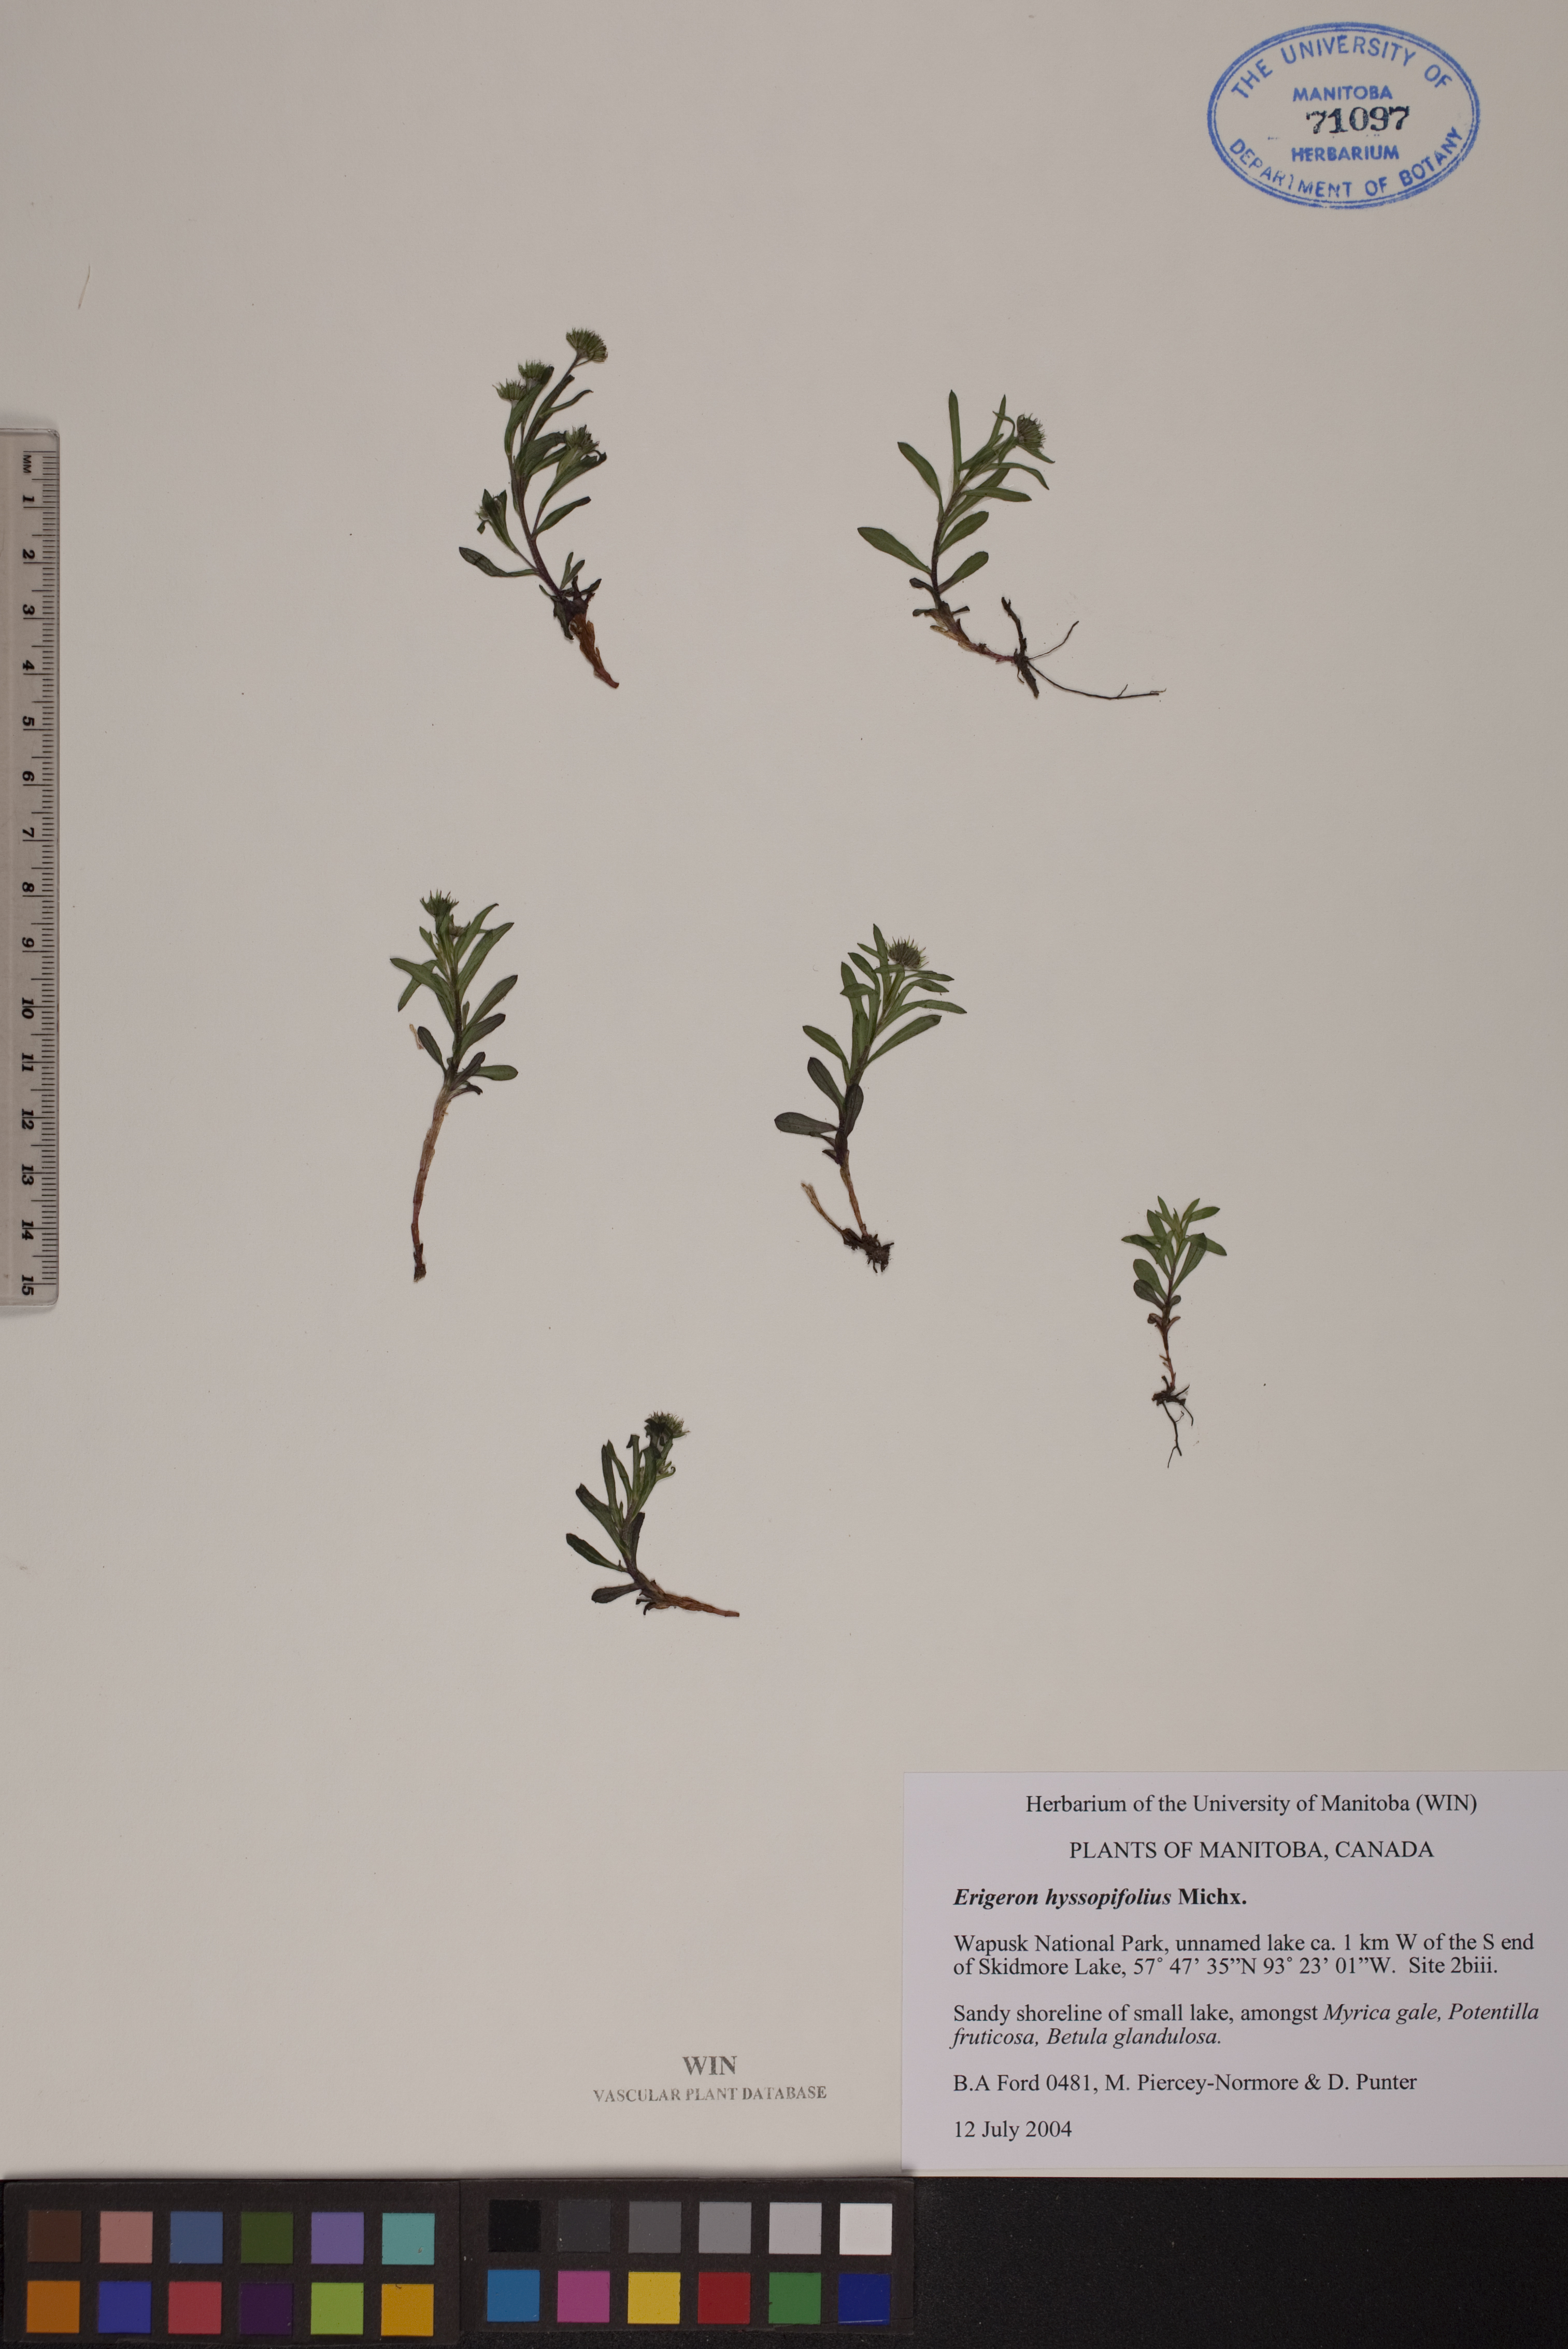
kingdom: Plantae
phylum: Tracheophyta
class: Magnoliopsida
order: Asterales
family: Asteraceae
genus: Erigeron
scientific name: Erigeron hyssopifolius
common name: Daisy fleabane
